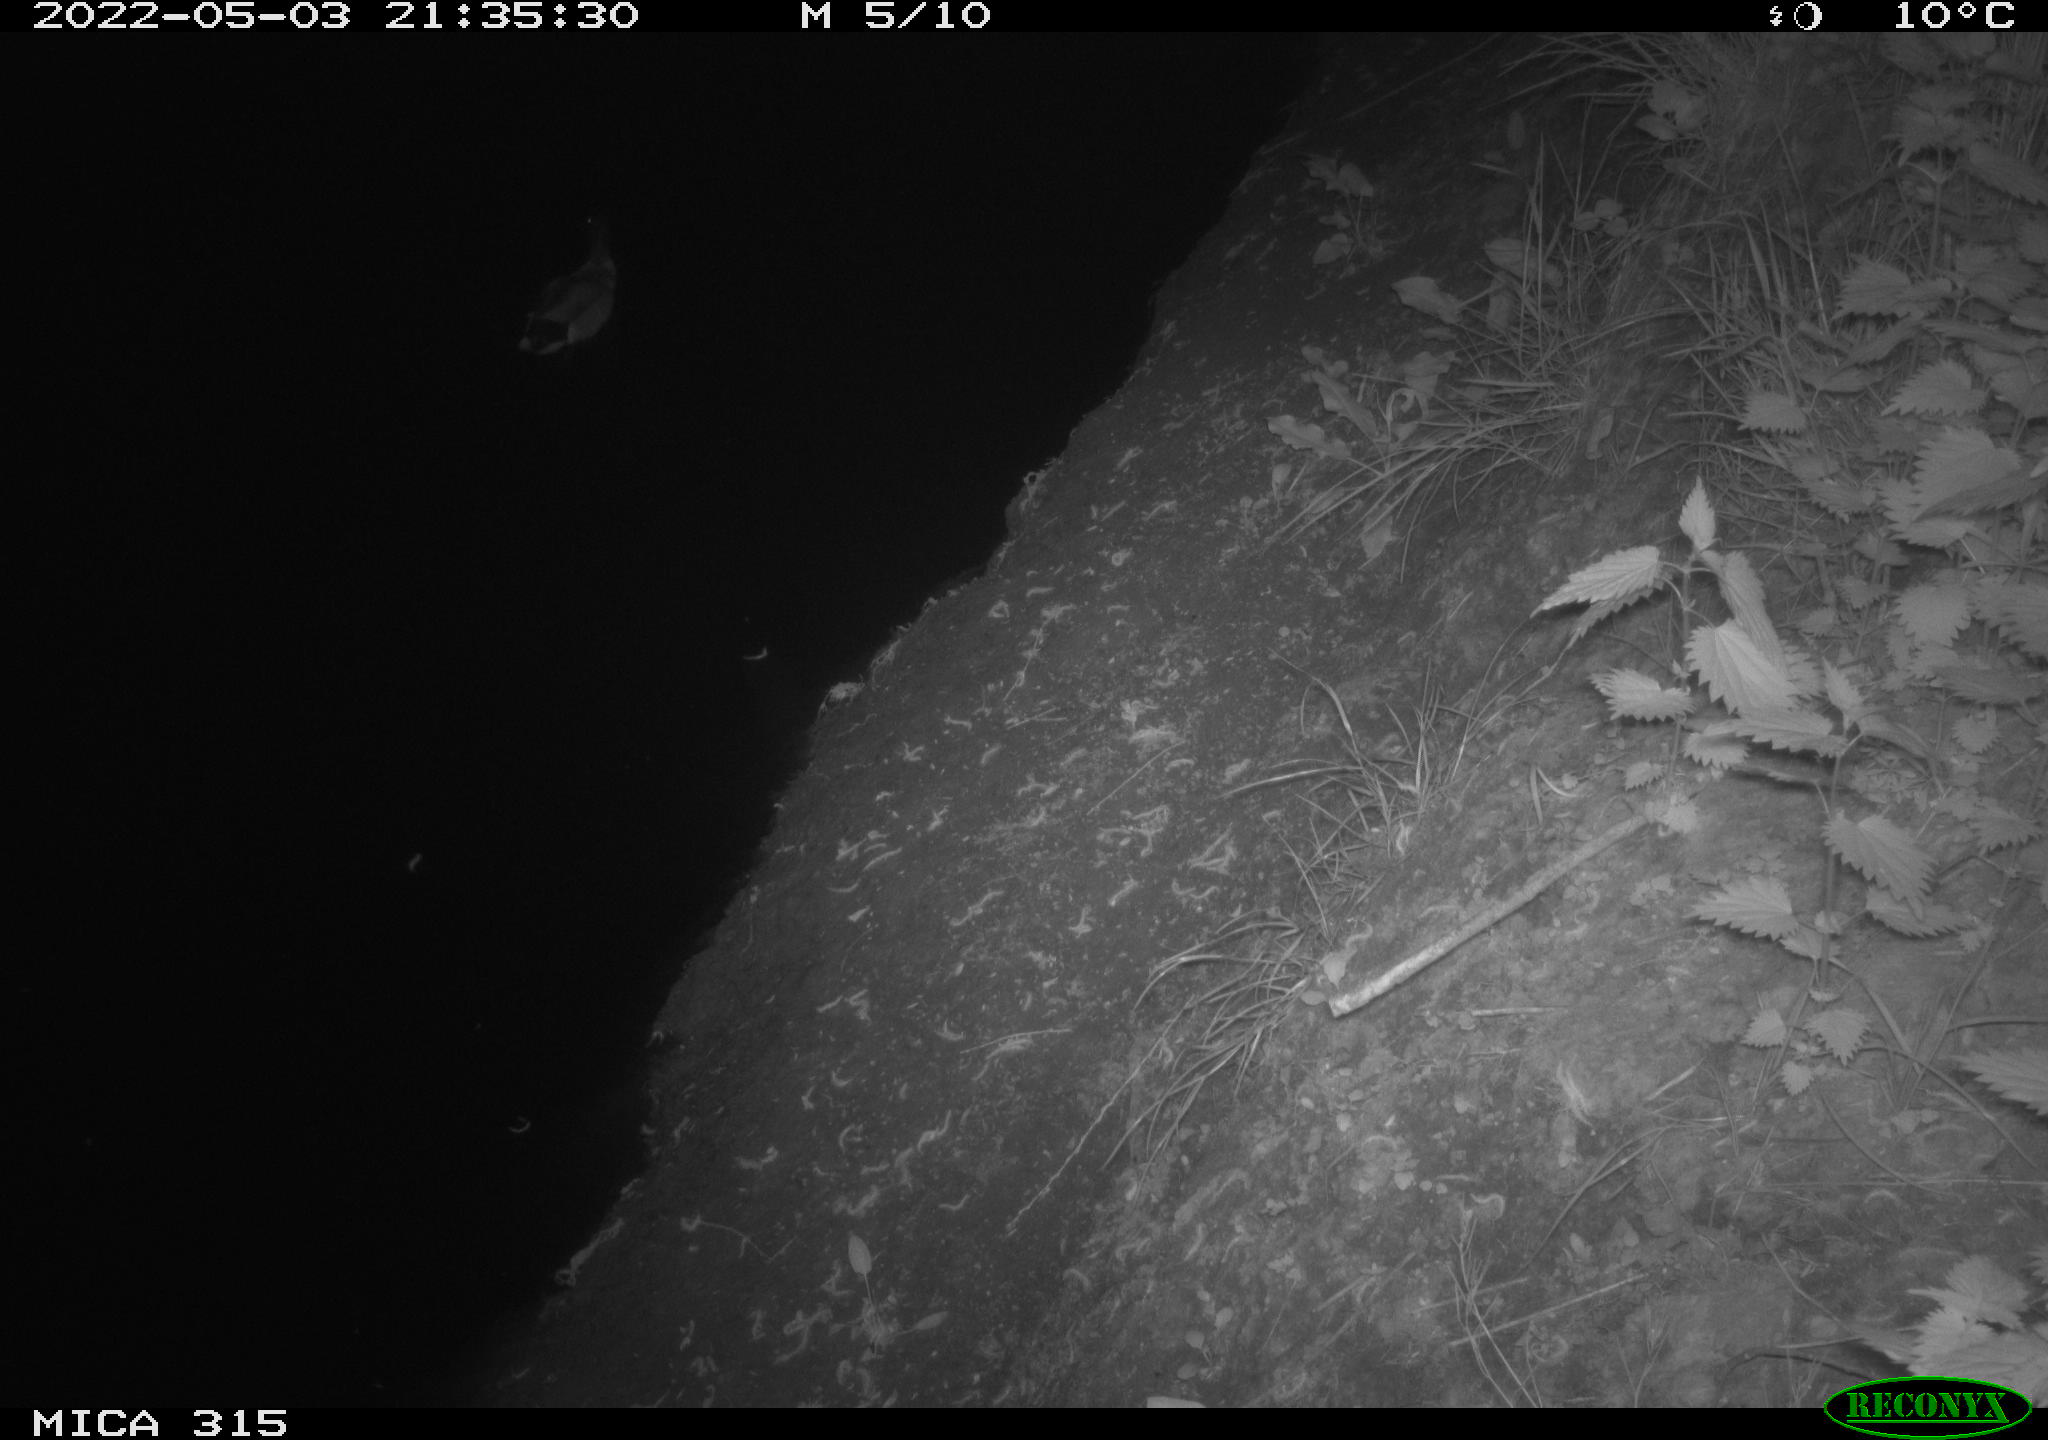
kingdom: Animalia
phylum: Chordata
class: Aves
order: Anseriformes
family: Anatidae
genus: Anas
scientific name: Anas platyrhynchos
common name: Mallard
